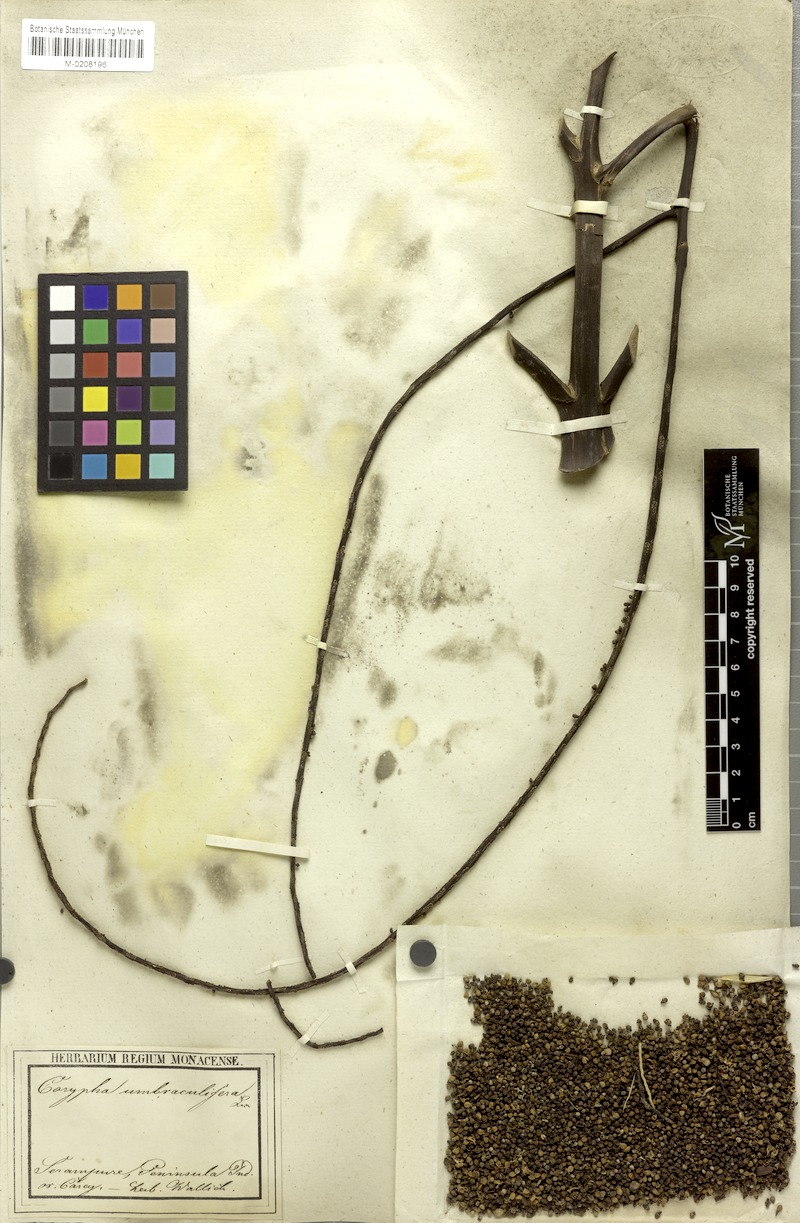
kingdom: Plantae
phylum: Tracheophyta
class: Liliopsida
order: Arecales
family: Arecaceae
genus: Corypha
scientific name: Corypha umbraculifera
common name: Talipot palm
